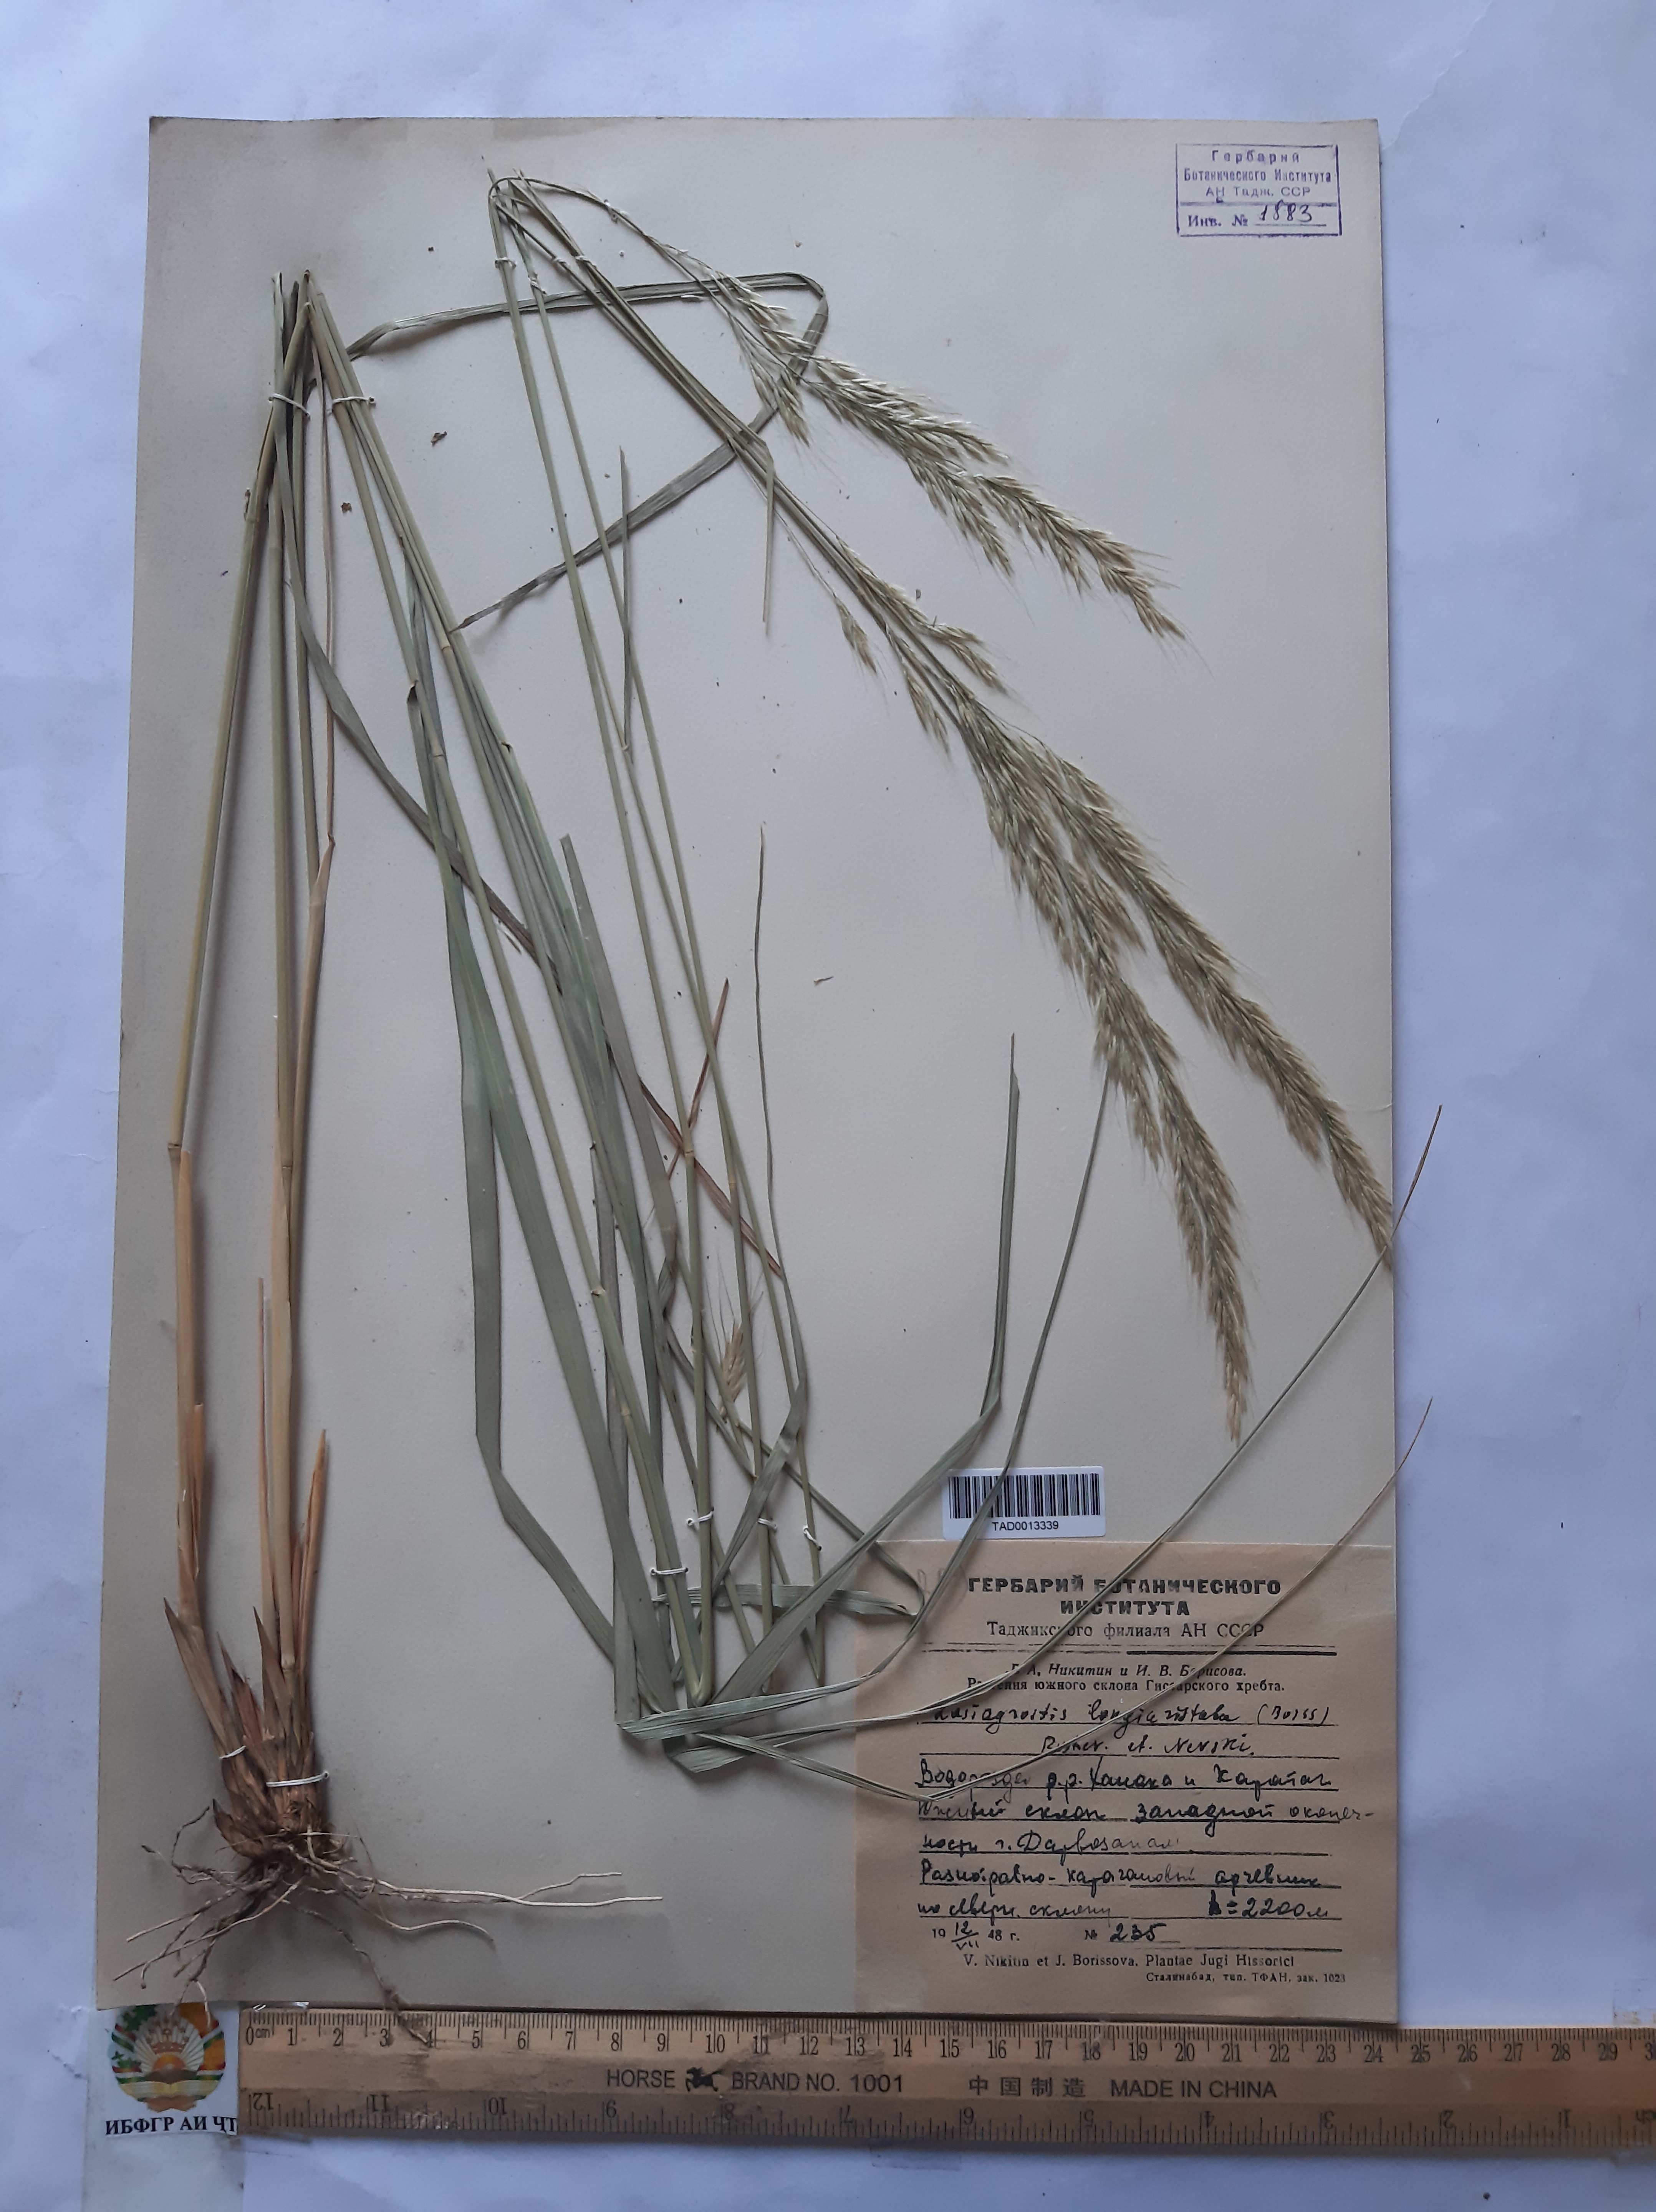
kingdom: Plantae
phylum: Tracheophyta
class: Liliopsida
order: Poales
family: Poaceae
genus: Achnatherum
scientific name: Achnatherum turcomanicum
